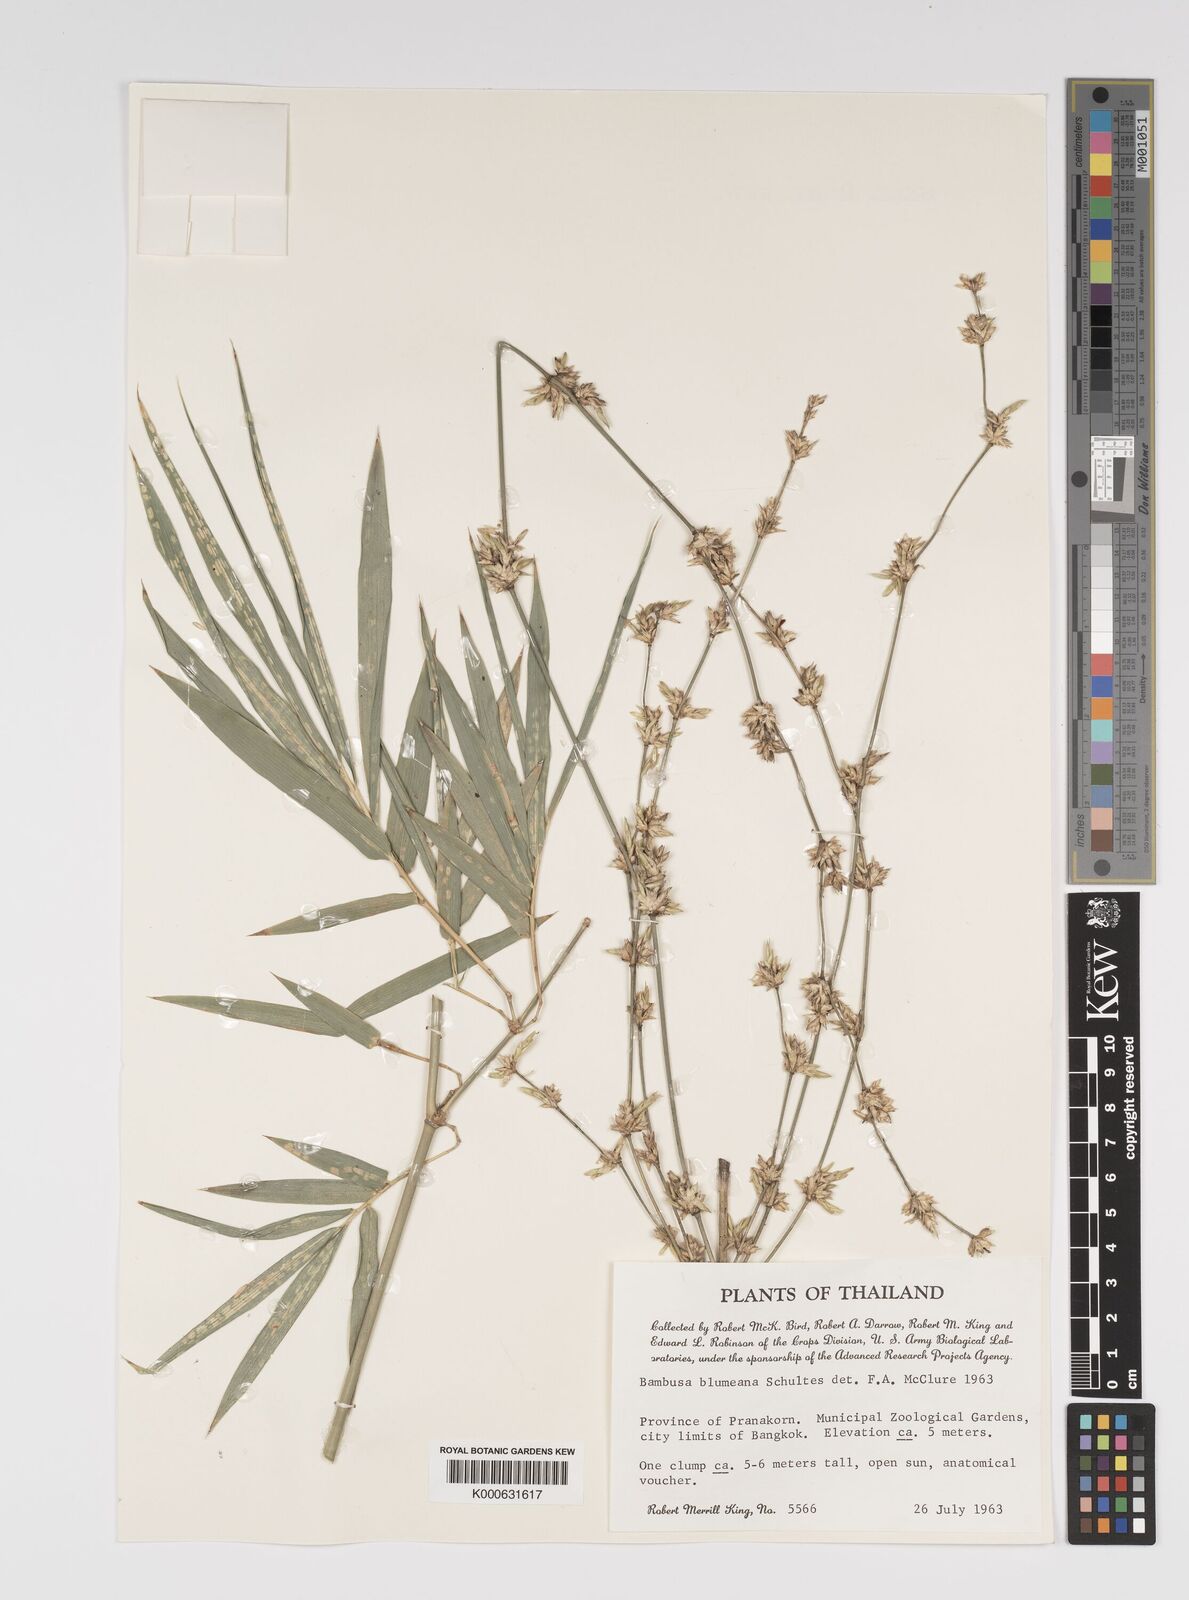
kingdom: Plantae
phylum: Tracheophyta
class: Liliopsida
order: Poales
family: Poaceae
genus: Bambusa
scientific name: Bambusa spinosa
